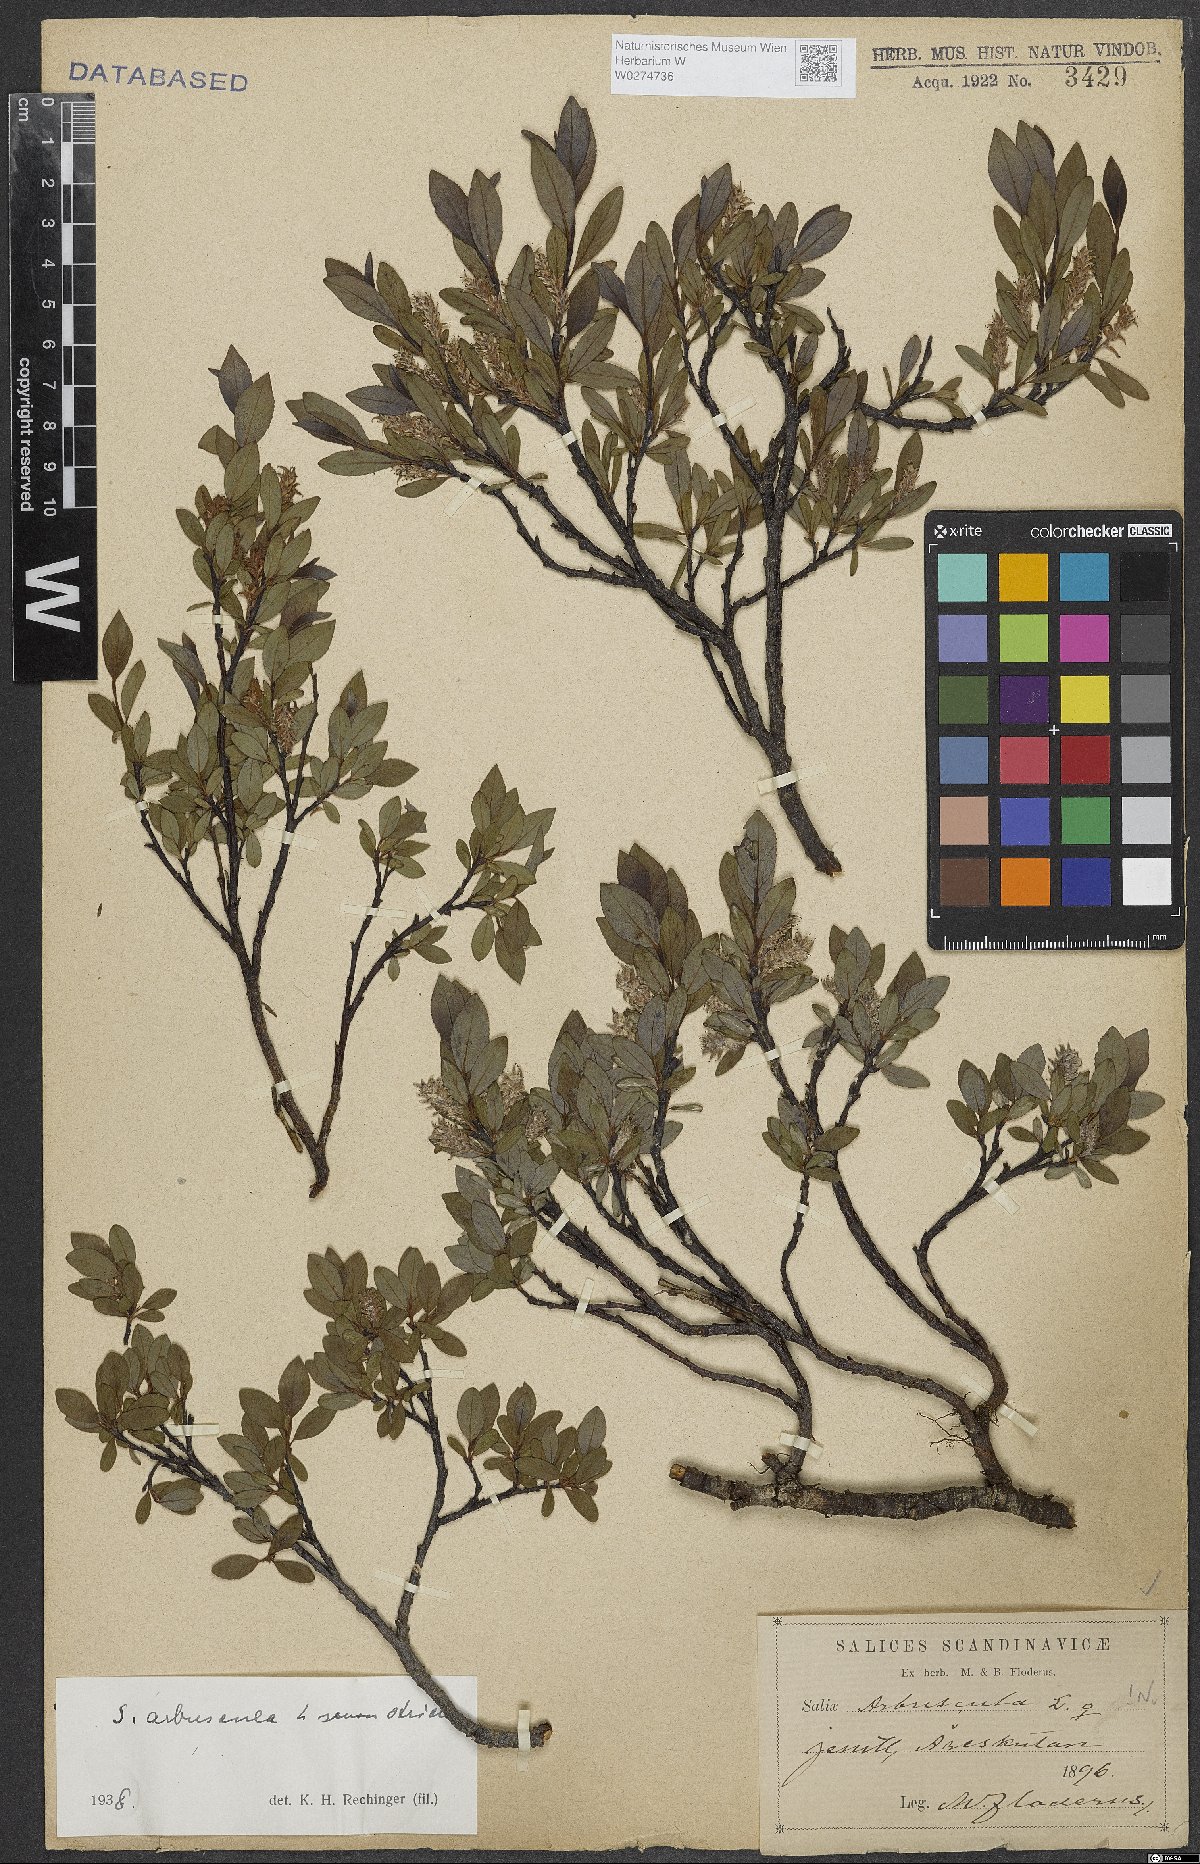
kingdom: Plantae
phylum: Tracheophyta
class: Magnoliopsida
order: Malpighiales
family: Salicaceae
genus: Salix
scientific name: Salix arbuscula
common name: Mountain willow
